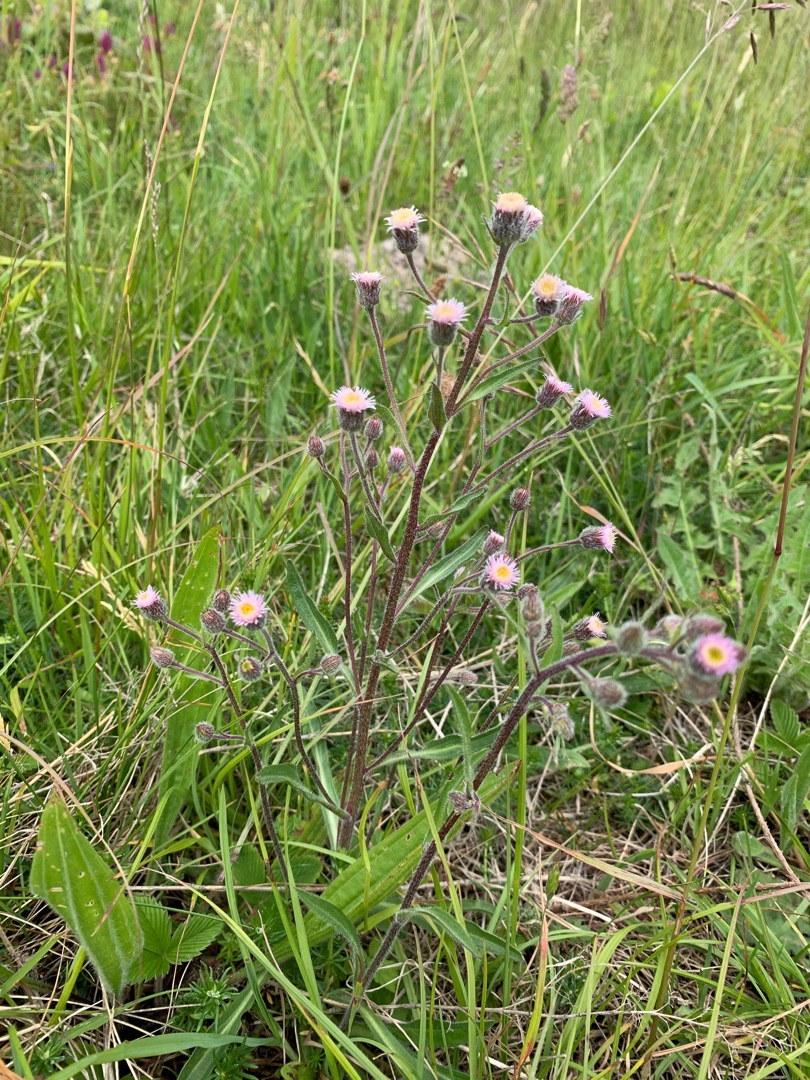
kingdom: Plantae
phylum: Tracheophyta
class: Magnoliopsida
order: Asterales
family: Asteraceae
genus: Erigeron
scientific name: Erigeron acris
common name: Bitter bakkestjerne
